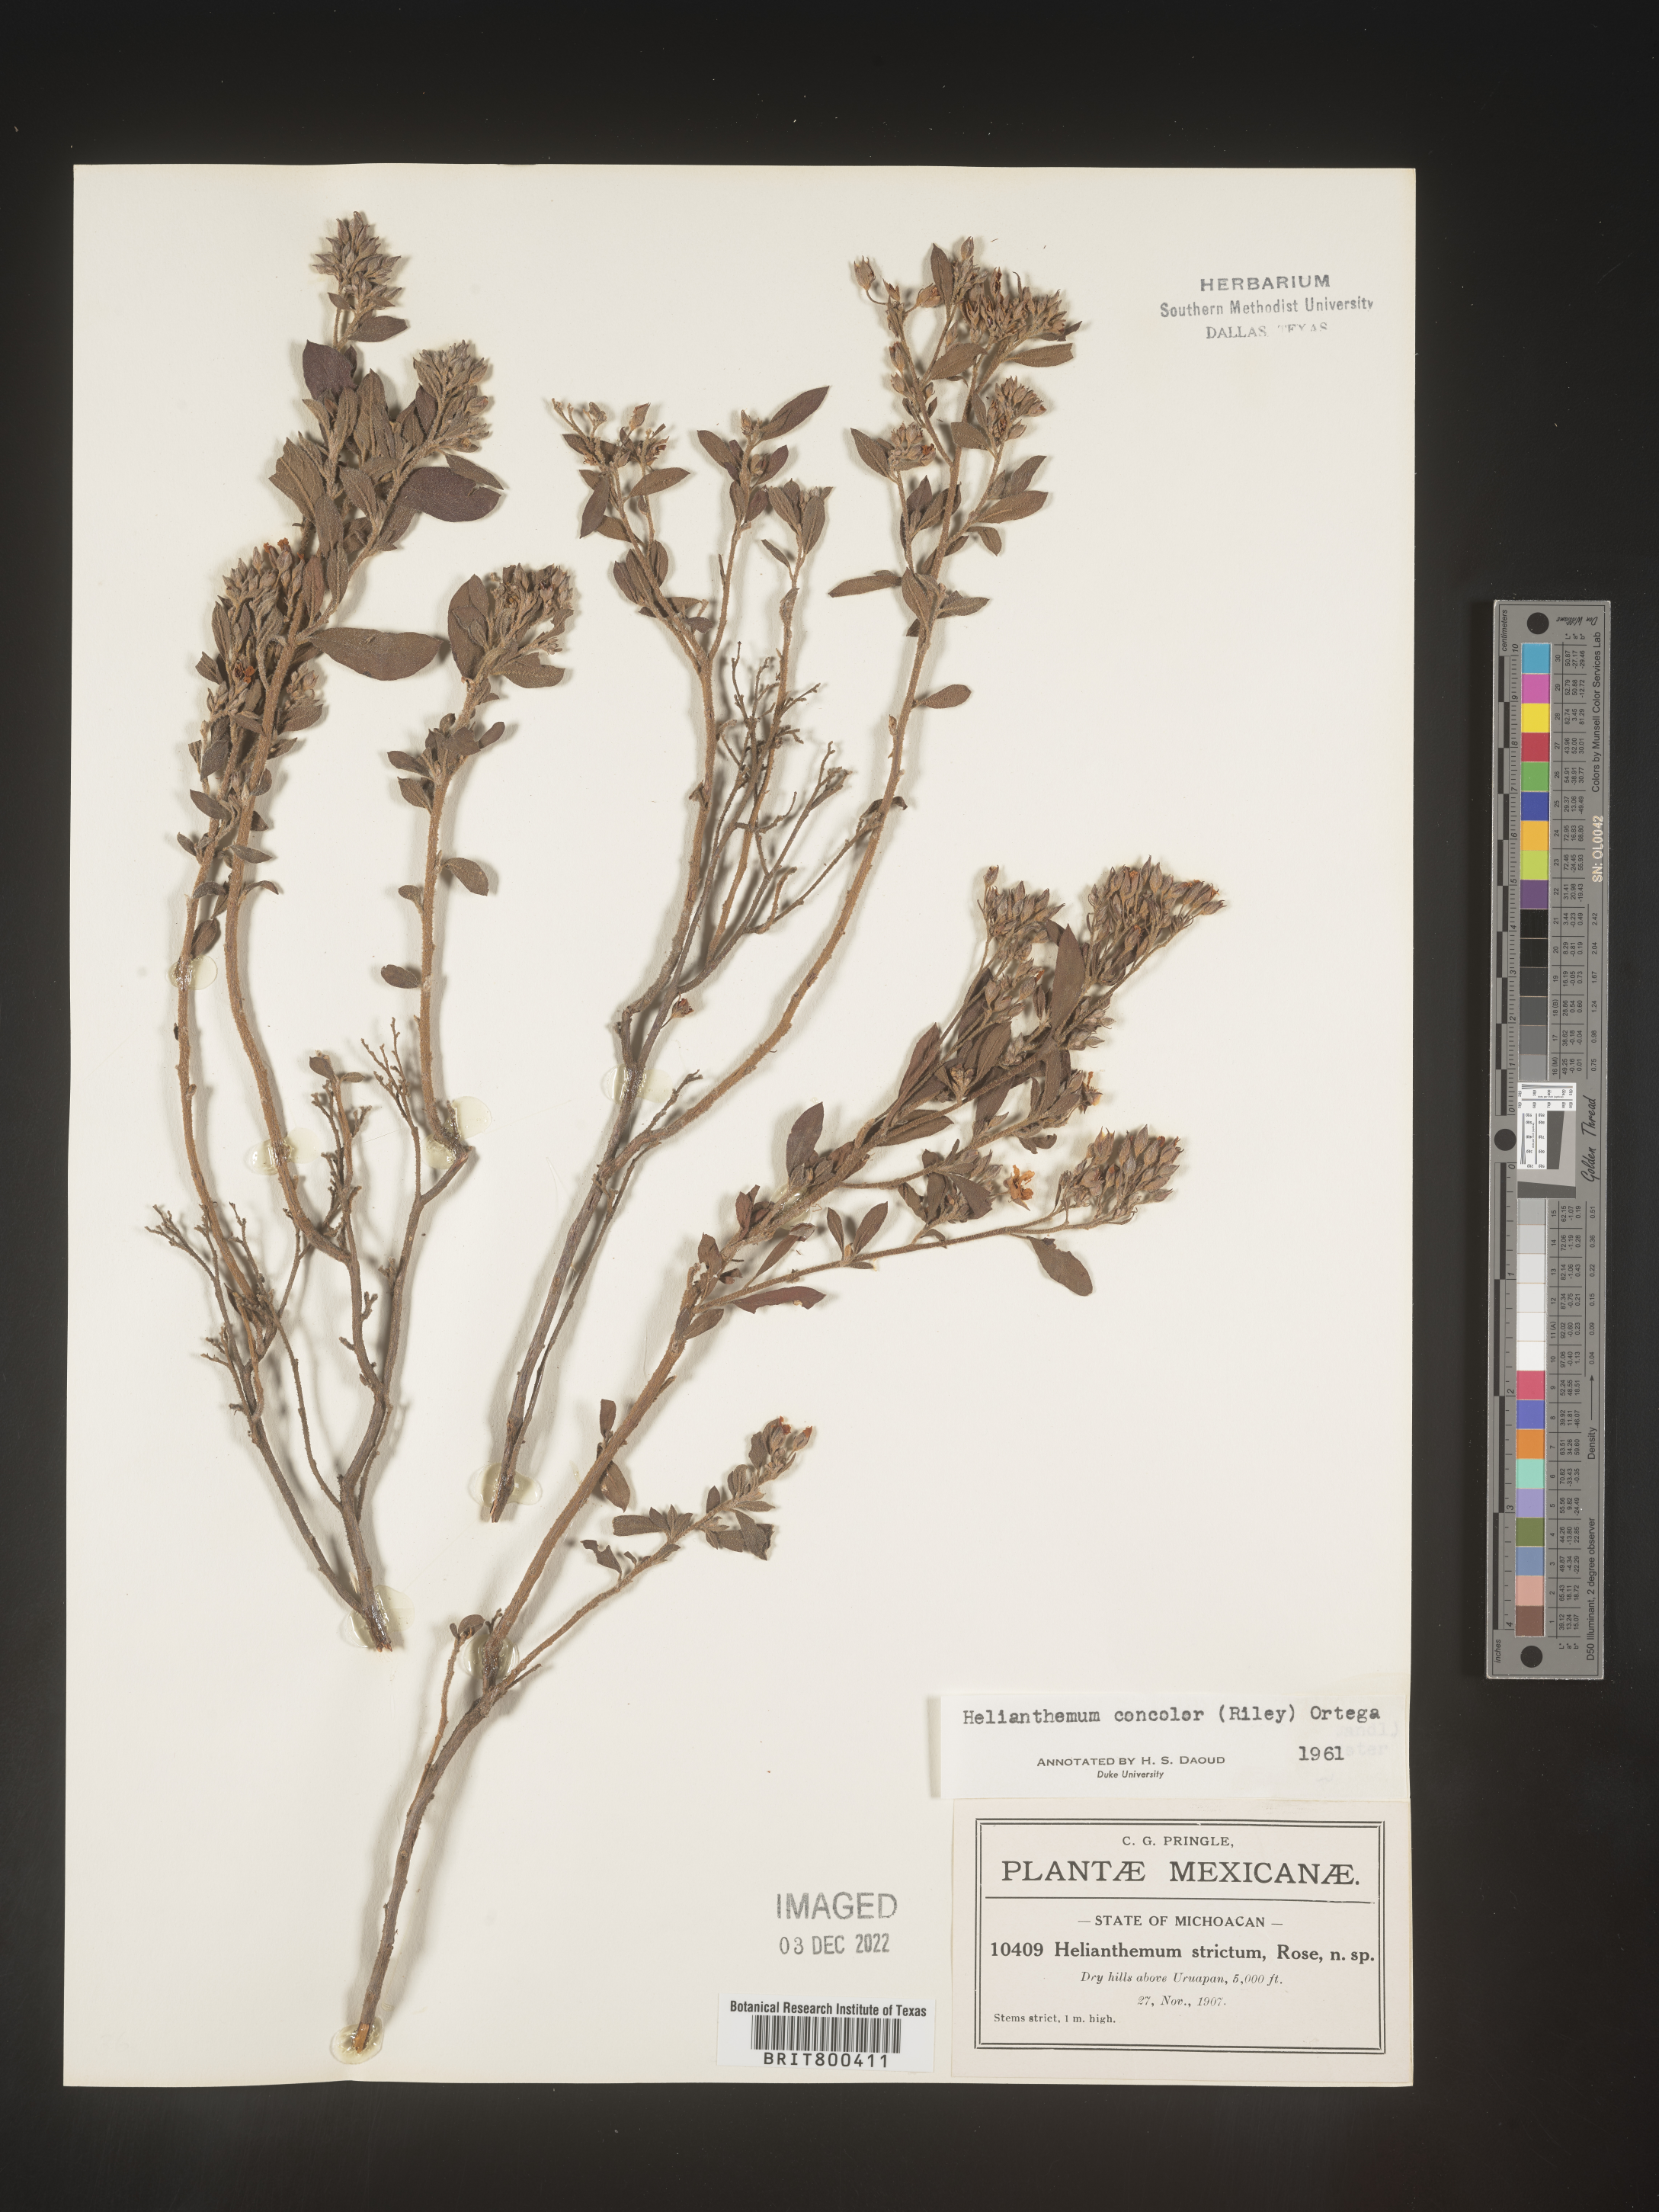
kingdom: Plantae
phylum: Tracheophyta
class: Magnoliopsida
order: Malvales
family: Cistaceae
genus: Helianthemum
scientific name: Helianthemum
